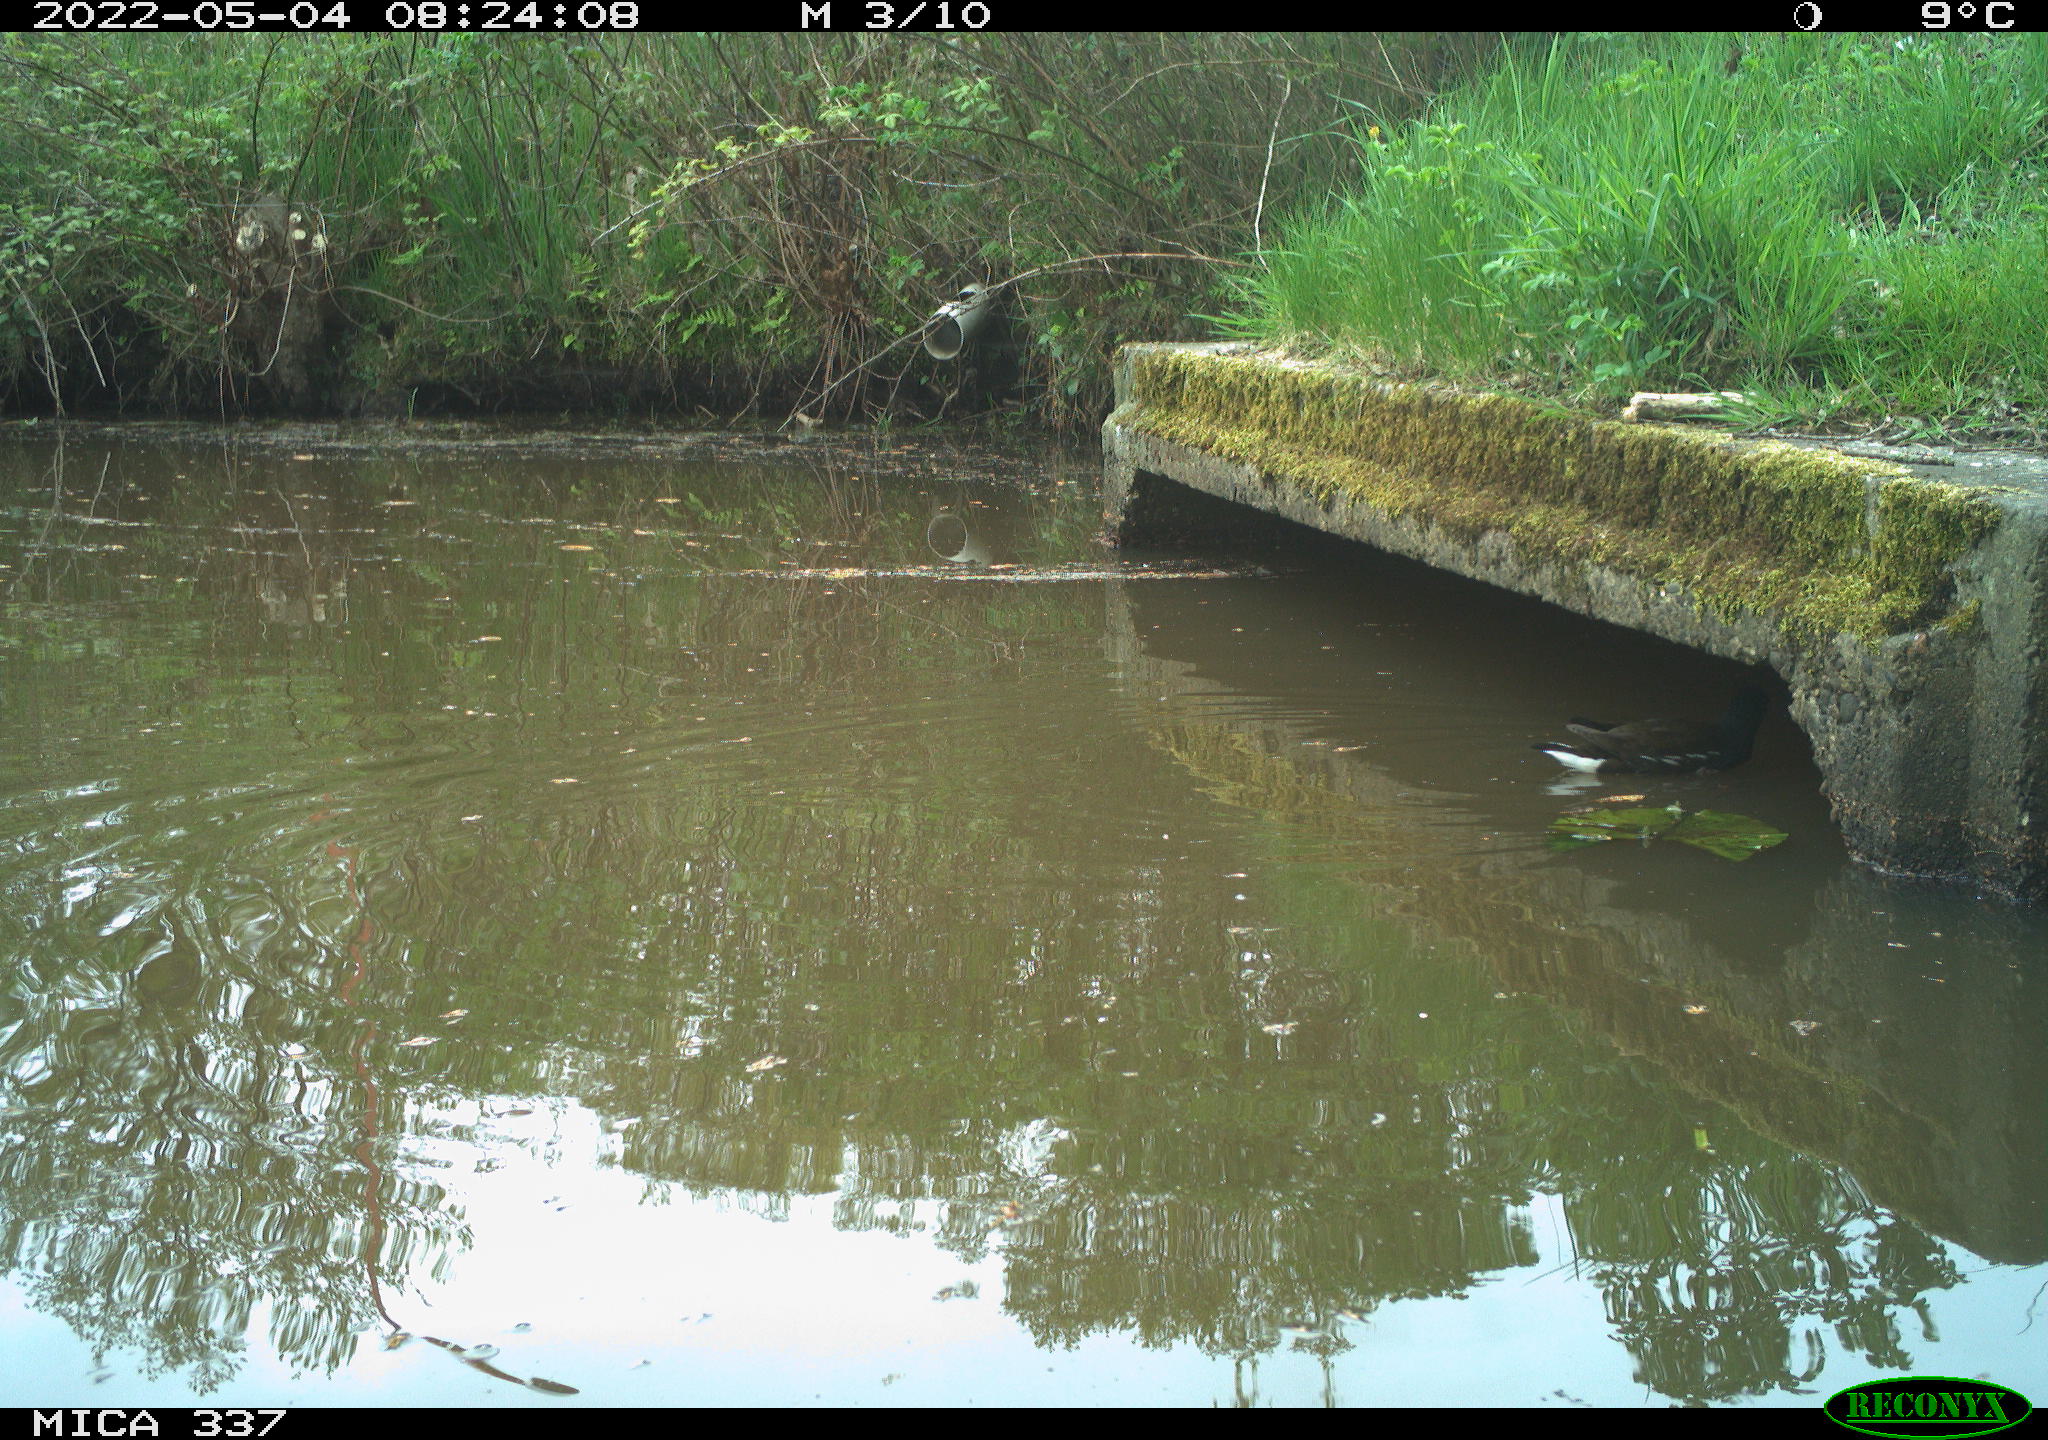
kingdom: Animalia
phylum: Chordata
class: Aves
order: Gruiformes
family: Rallidae
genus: Gallinula
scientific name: Gallinula chloropus
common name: Common moorhen
